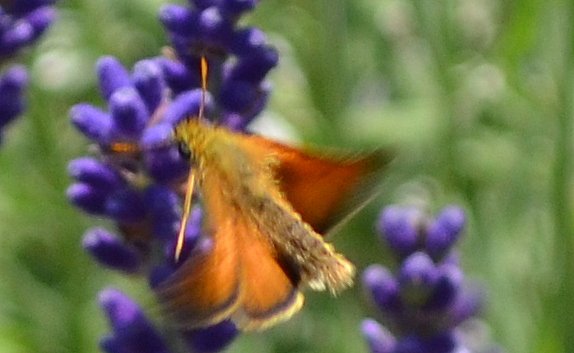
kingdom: Animalia
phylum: Arthropoda
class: Insecta
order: Lepidoptera
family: Hesperiidae
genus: Thymelicus
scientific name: Thymelicus lineola
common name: European Skipper
